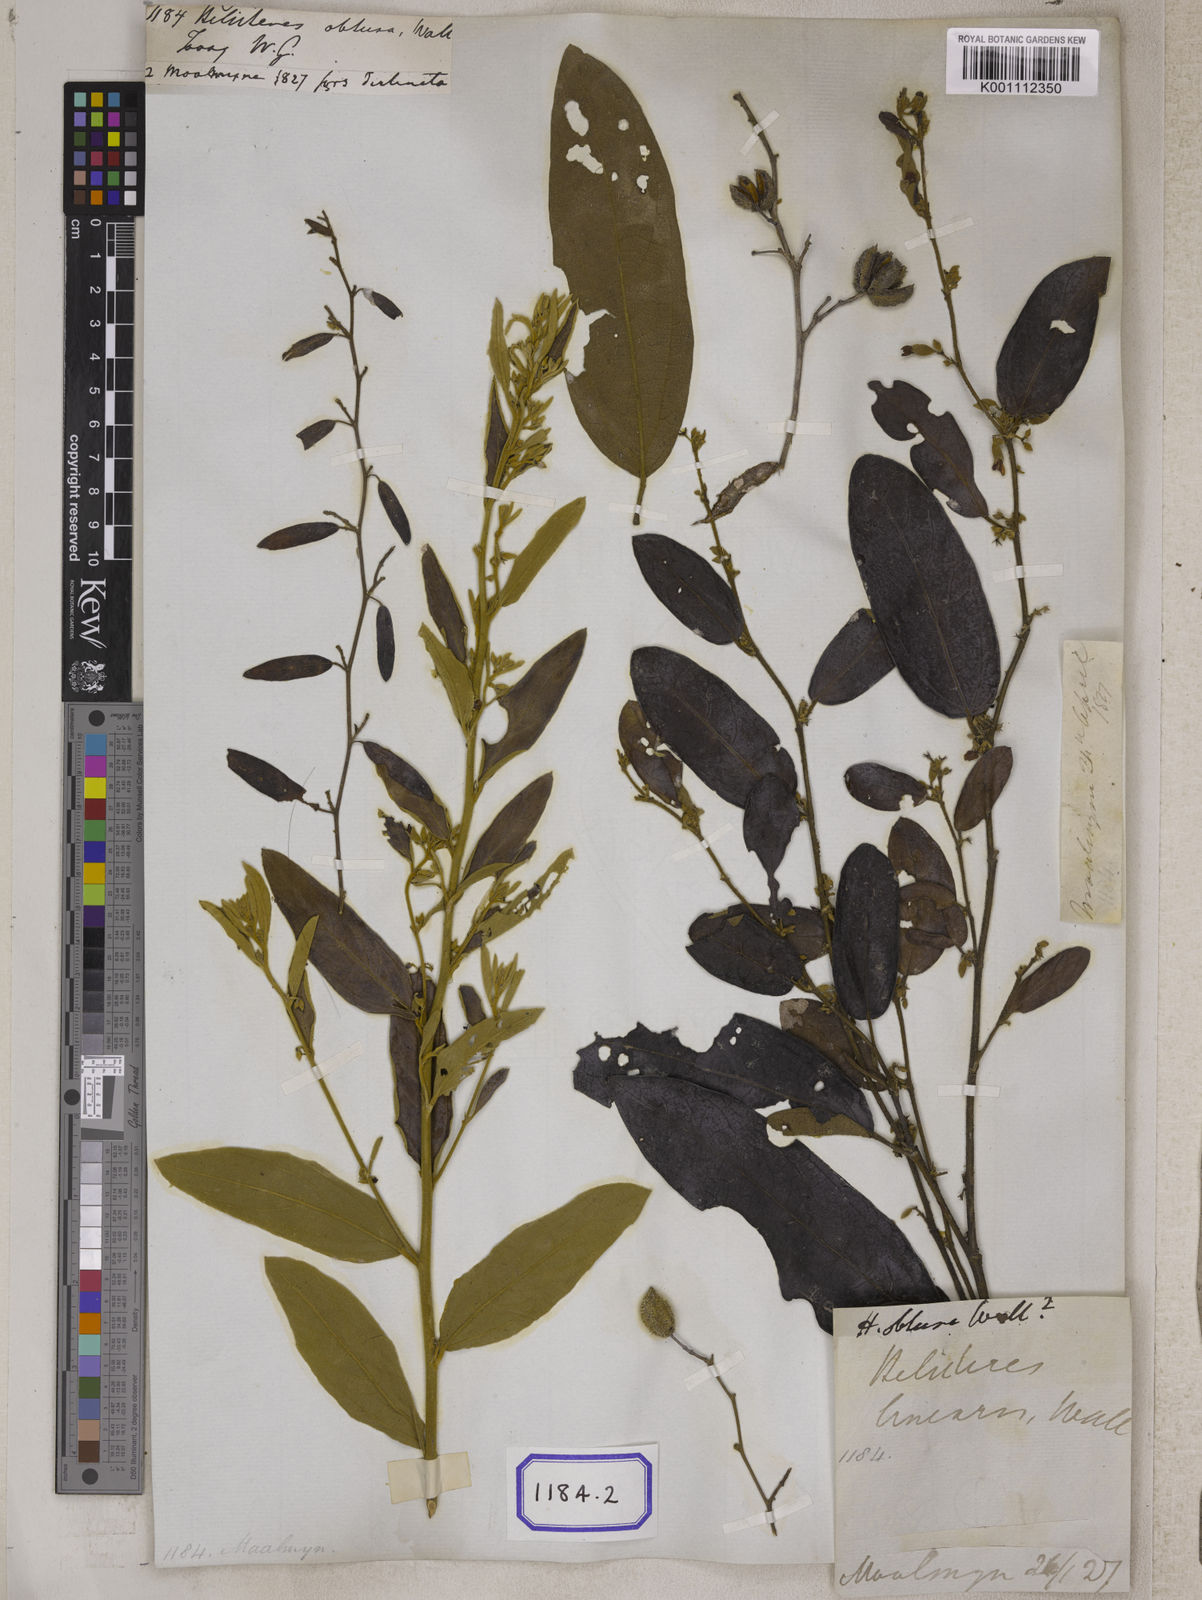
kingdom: Plantae
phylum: Tracheophyta
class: Magnoliopsida
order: Malvales
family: Malvaceae
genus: Helicteres
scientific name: Helicteres
